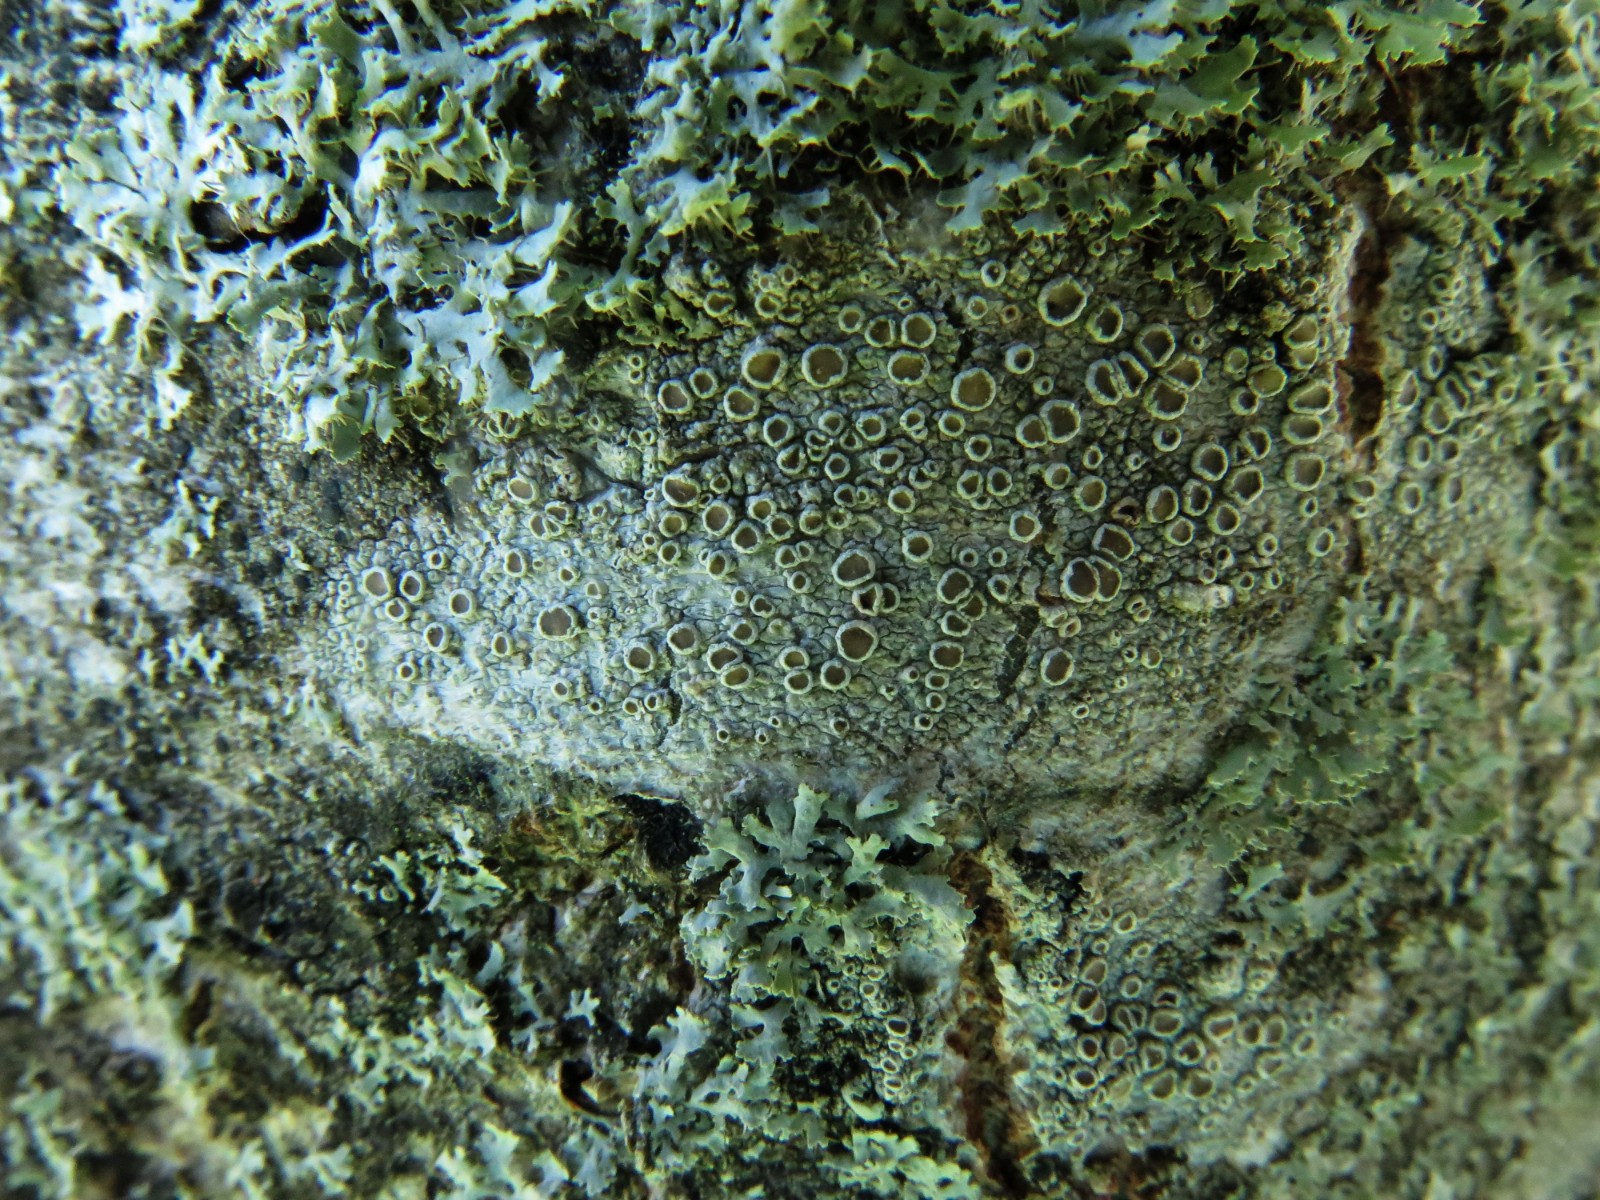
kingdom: Fungi
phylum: Ascomycota
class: Lecanoromycetes
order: Lecanorales
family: Lecanoraceae
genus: Lecanora
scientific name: Lecanora chlarotera
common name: brun kantskivelav
